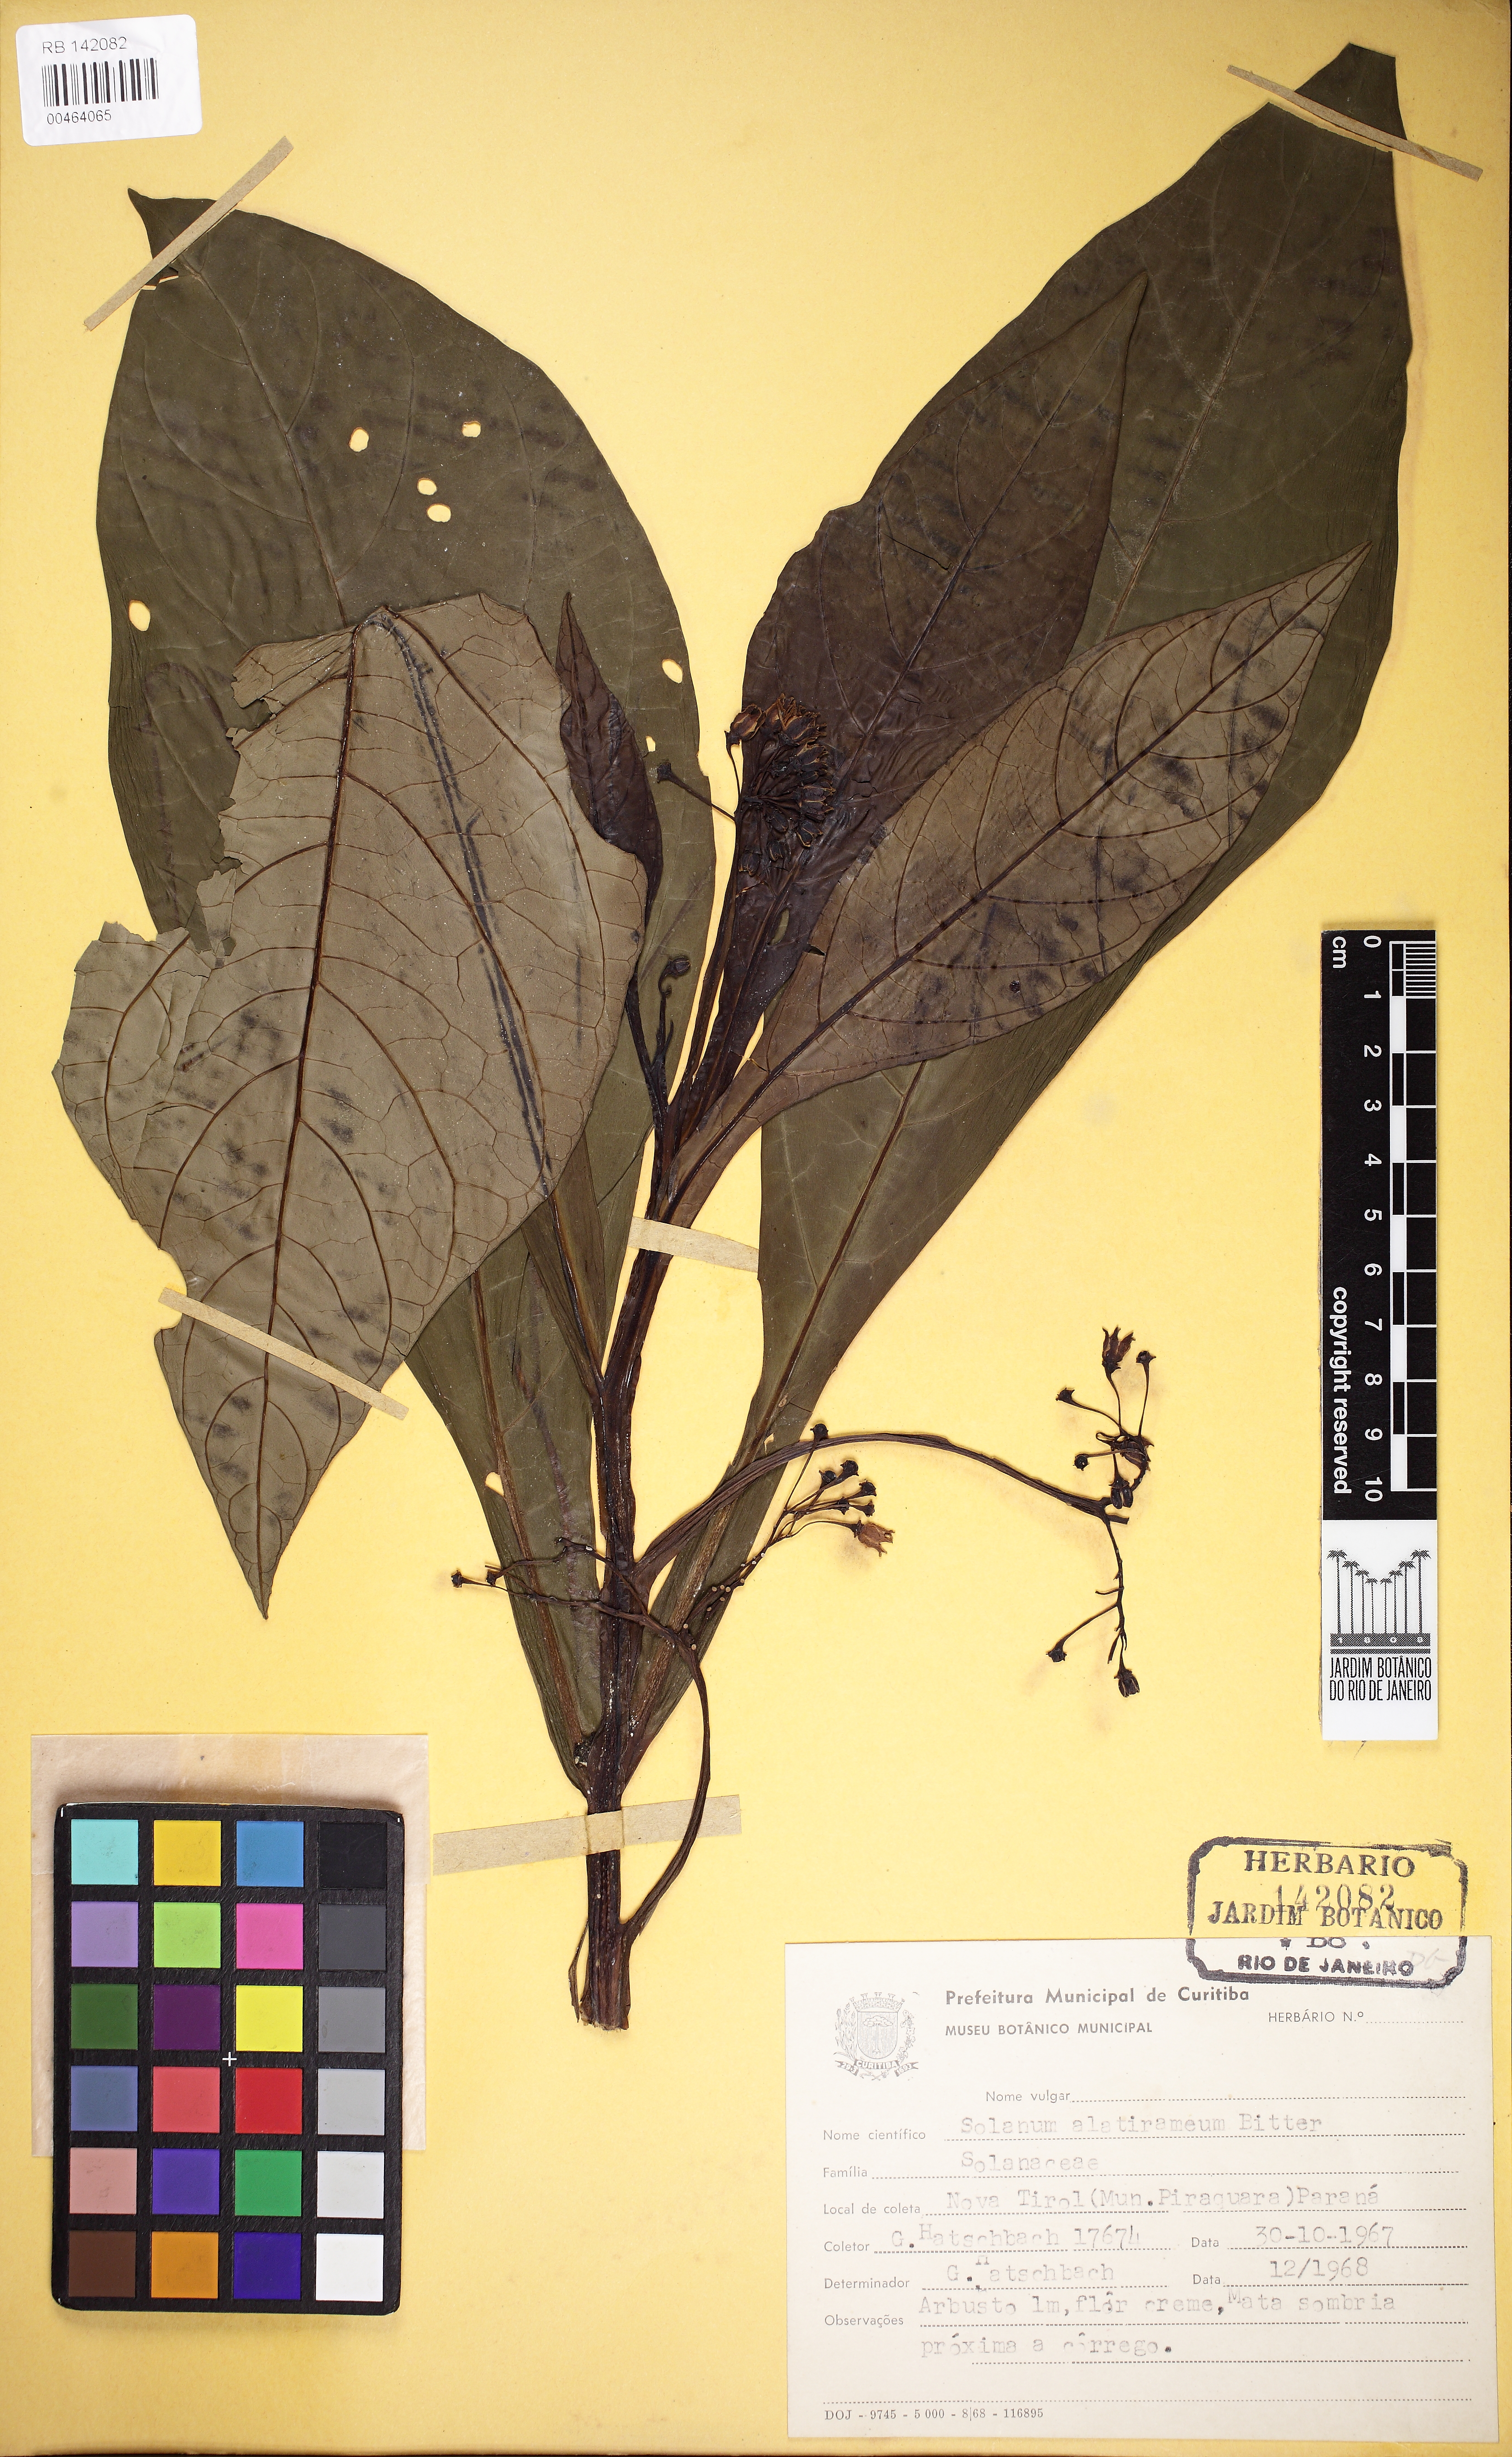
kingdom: Plantae
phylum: Tracheophyta
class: Magnoliopsida
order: Solanales
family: Solanaceae
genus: Solanum
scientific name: Solanum alatirameum
